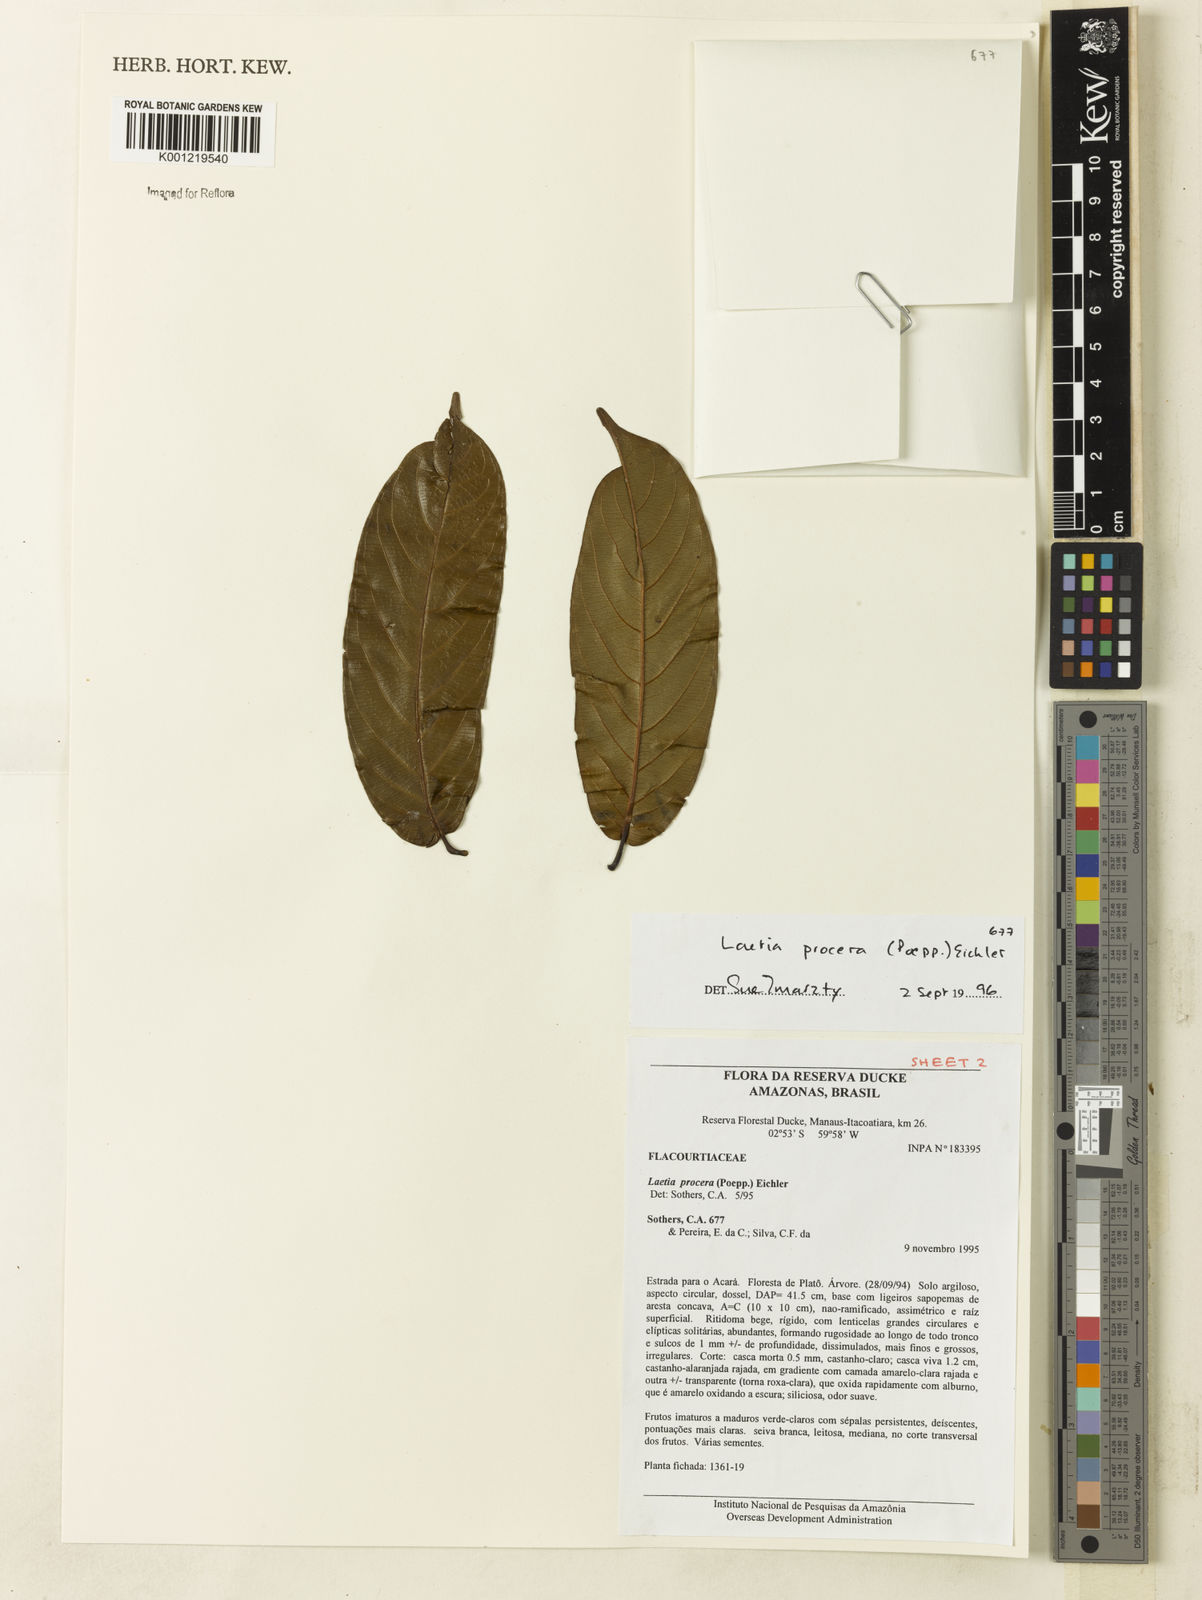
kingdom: Plantae
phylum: Tracheophyta
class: Magnoliopsida
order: Malpighiales
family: Salicaceae
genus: Casearia
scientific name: Casearia bicolor
